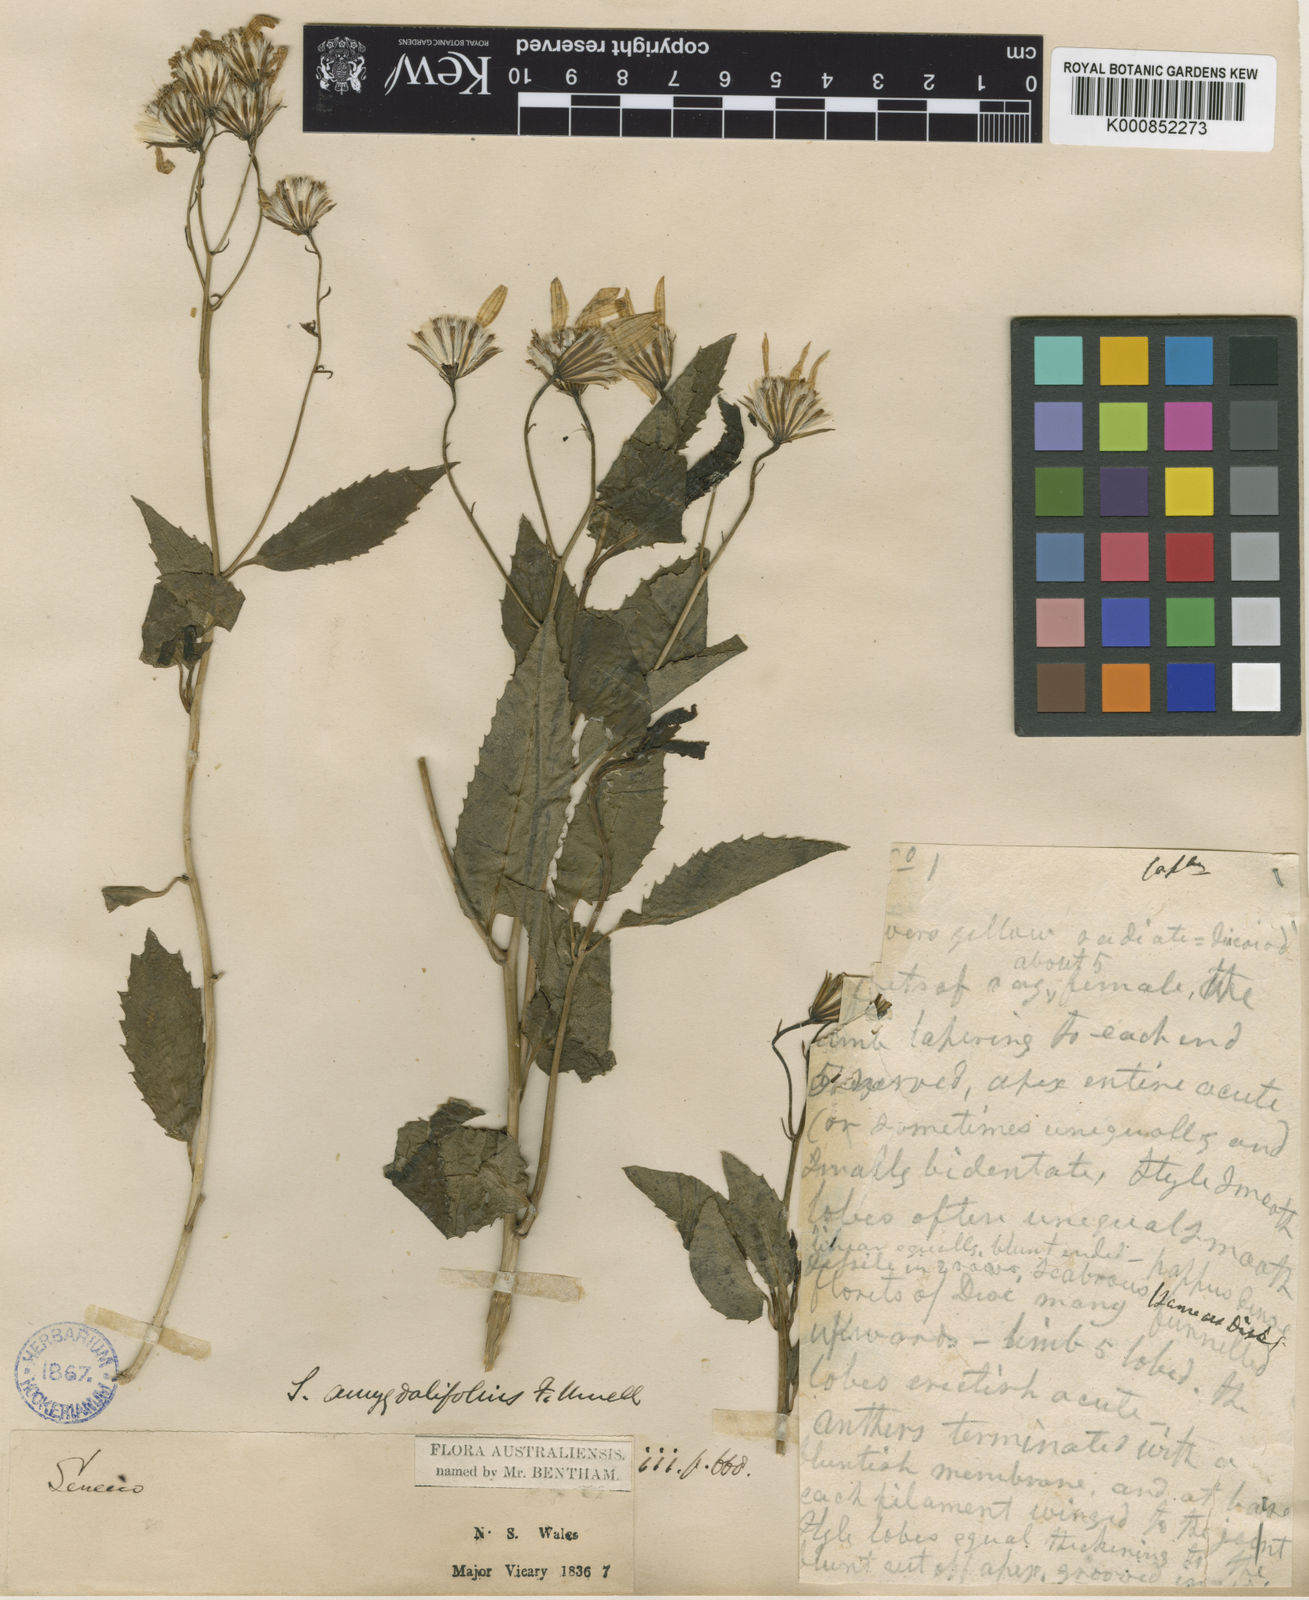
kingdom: Plantae
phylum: Tracheophyta
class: Magnoliopsida
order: Asterales
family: Asteraceae
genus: Lordhowea
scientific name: Lordhowea amygdalifolia
